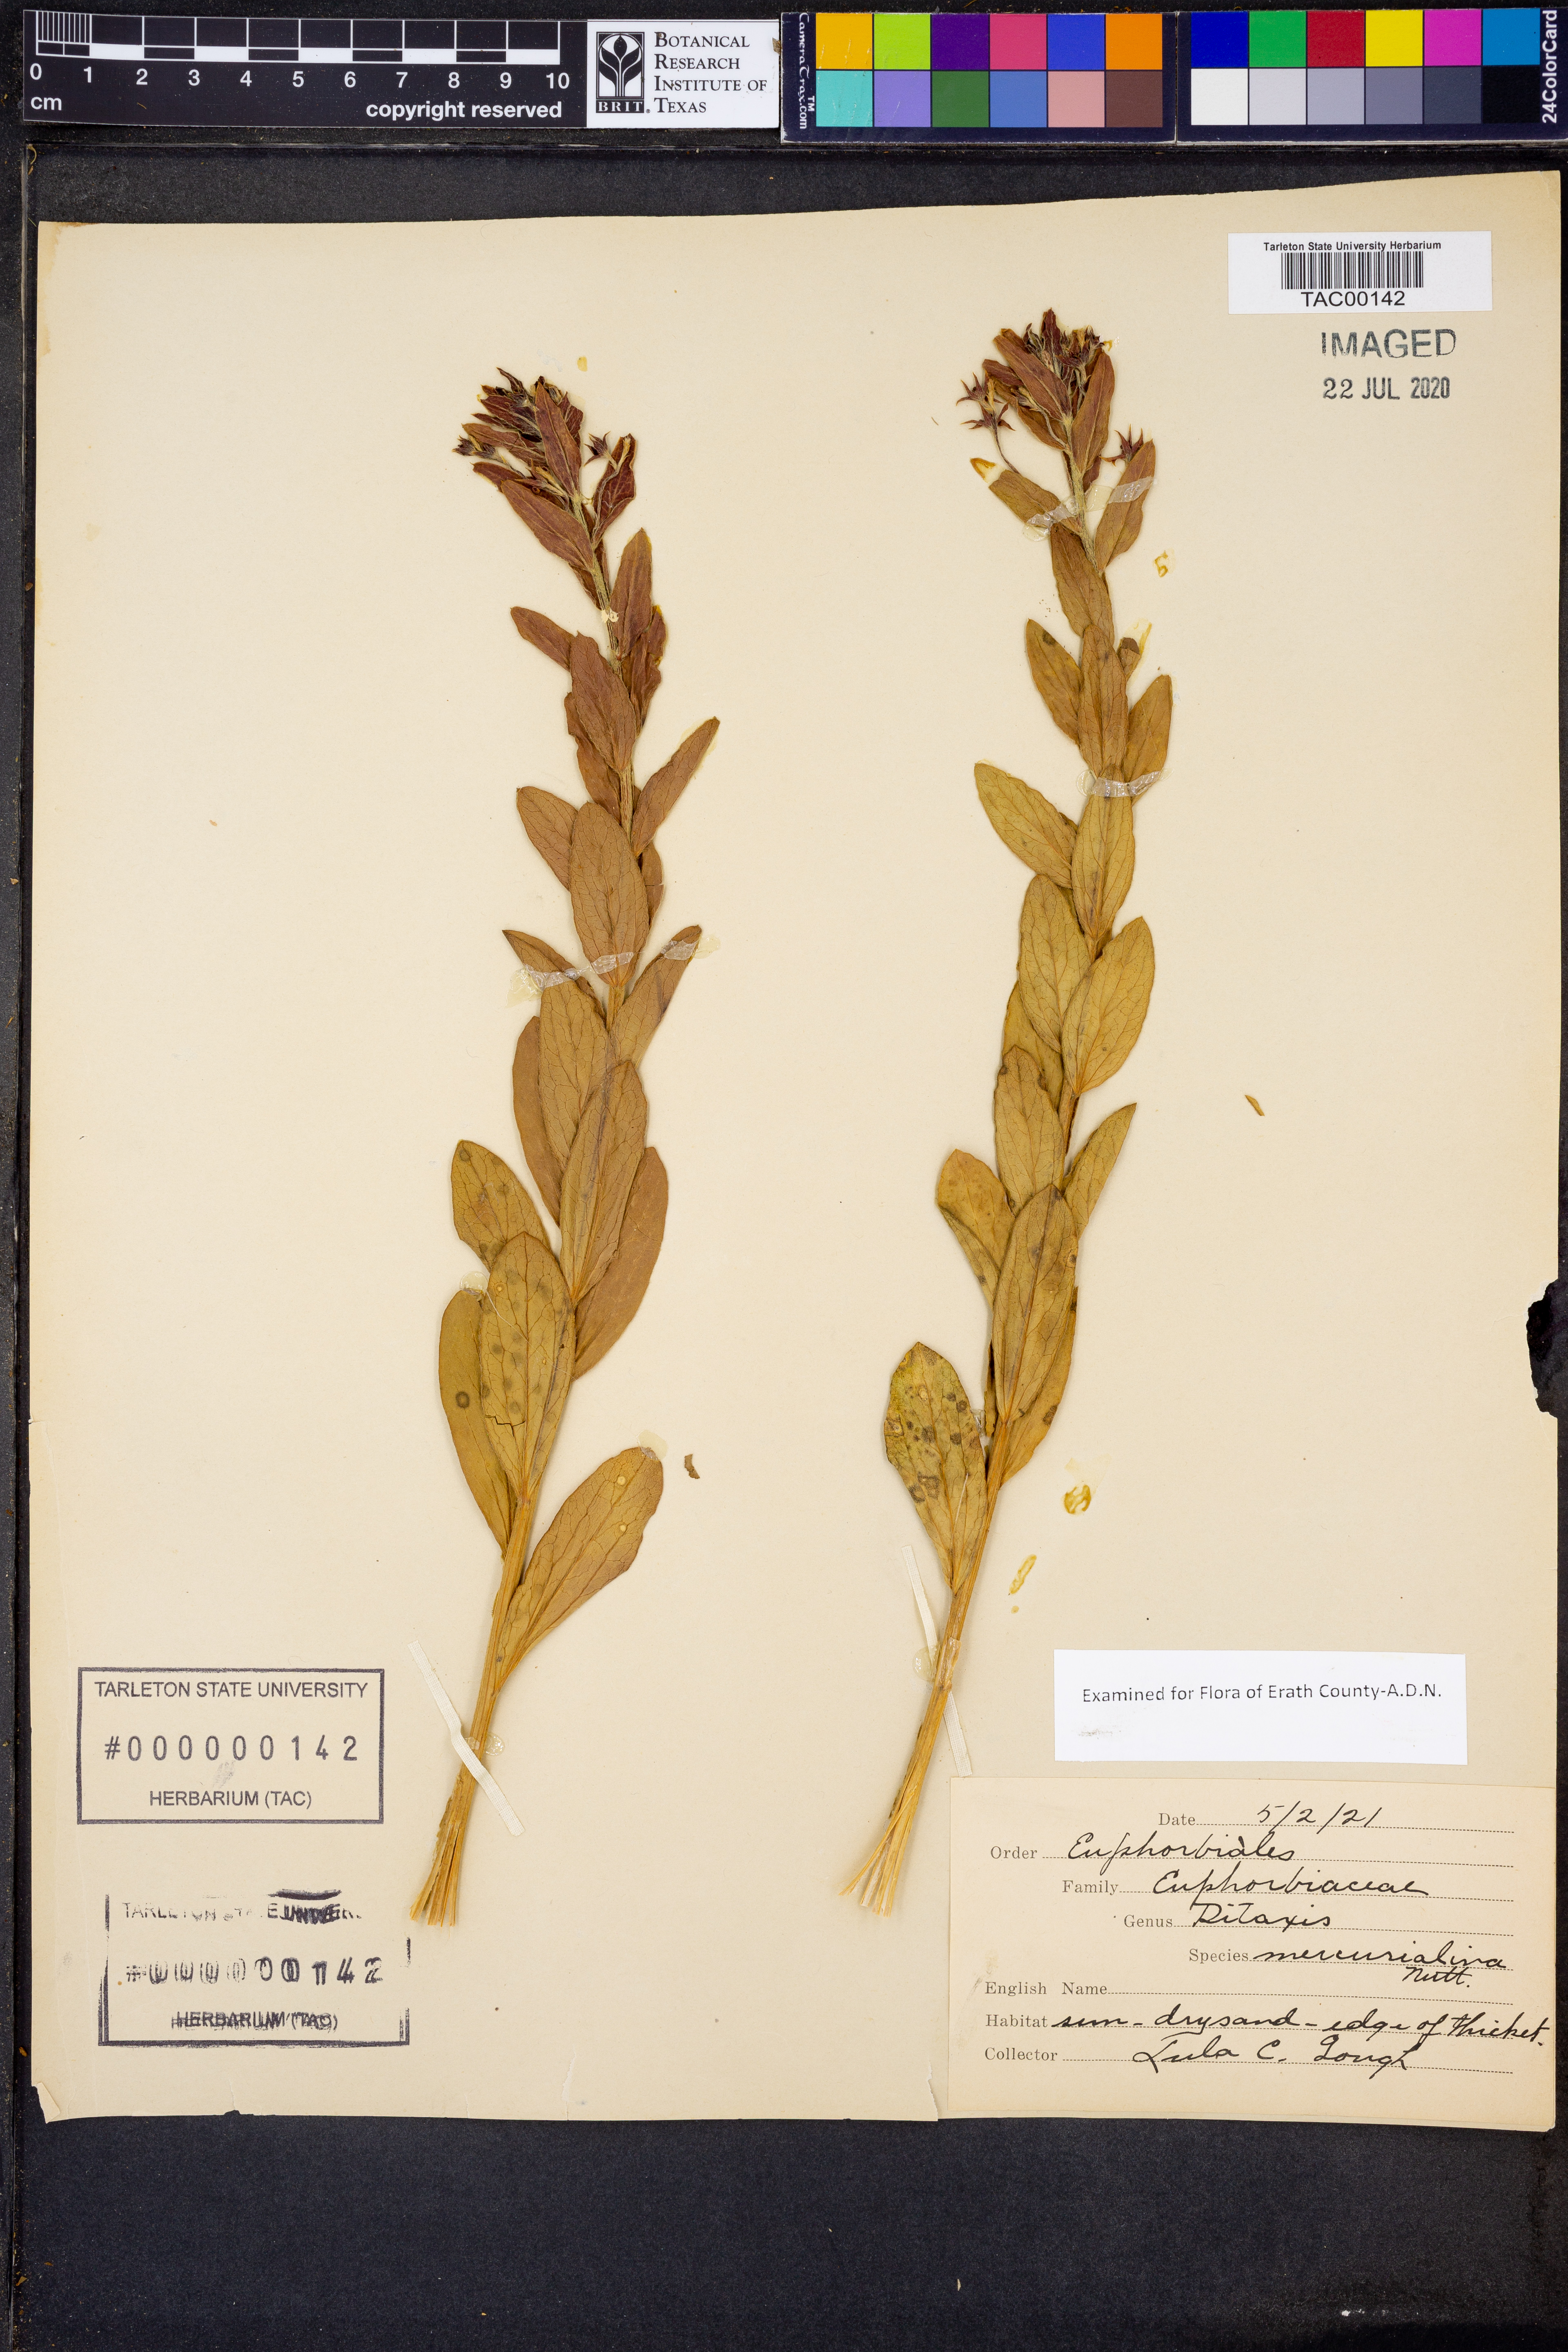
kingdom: Plantae
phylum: Tracheophyta
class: Magnoliopsida
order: Malpighiales
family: Euphorbiaceae
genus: Ditaxis
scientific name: Ditaxis mercurialina
